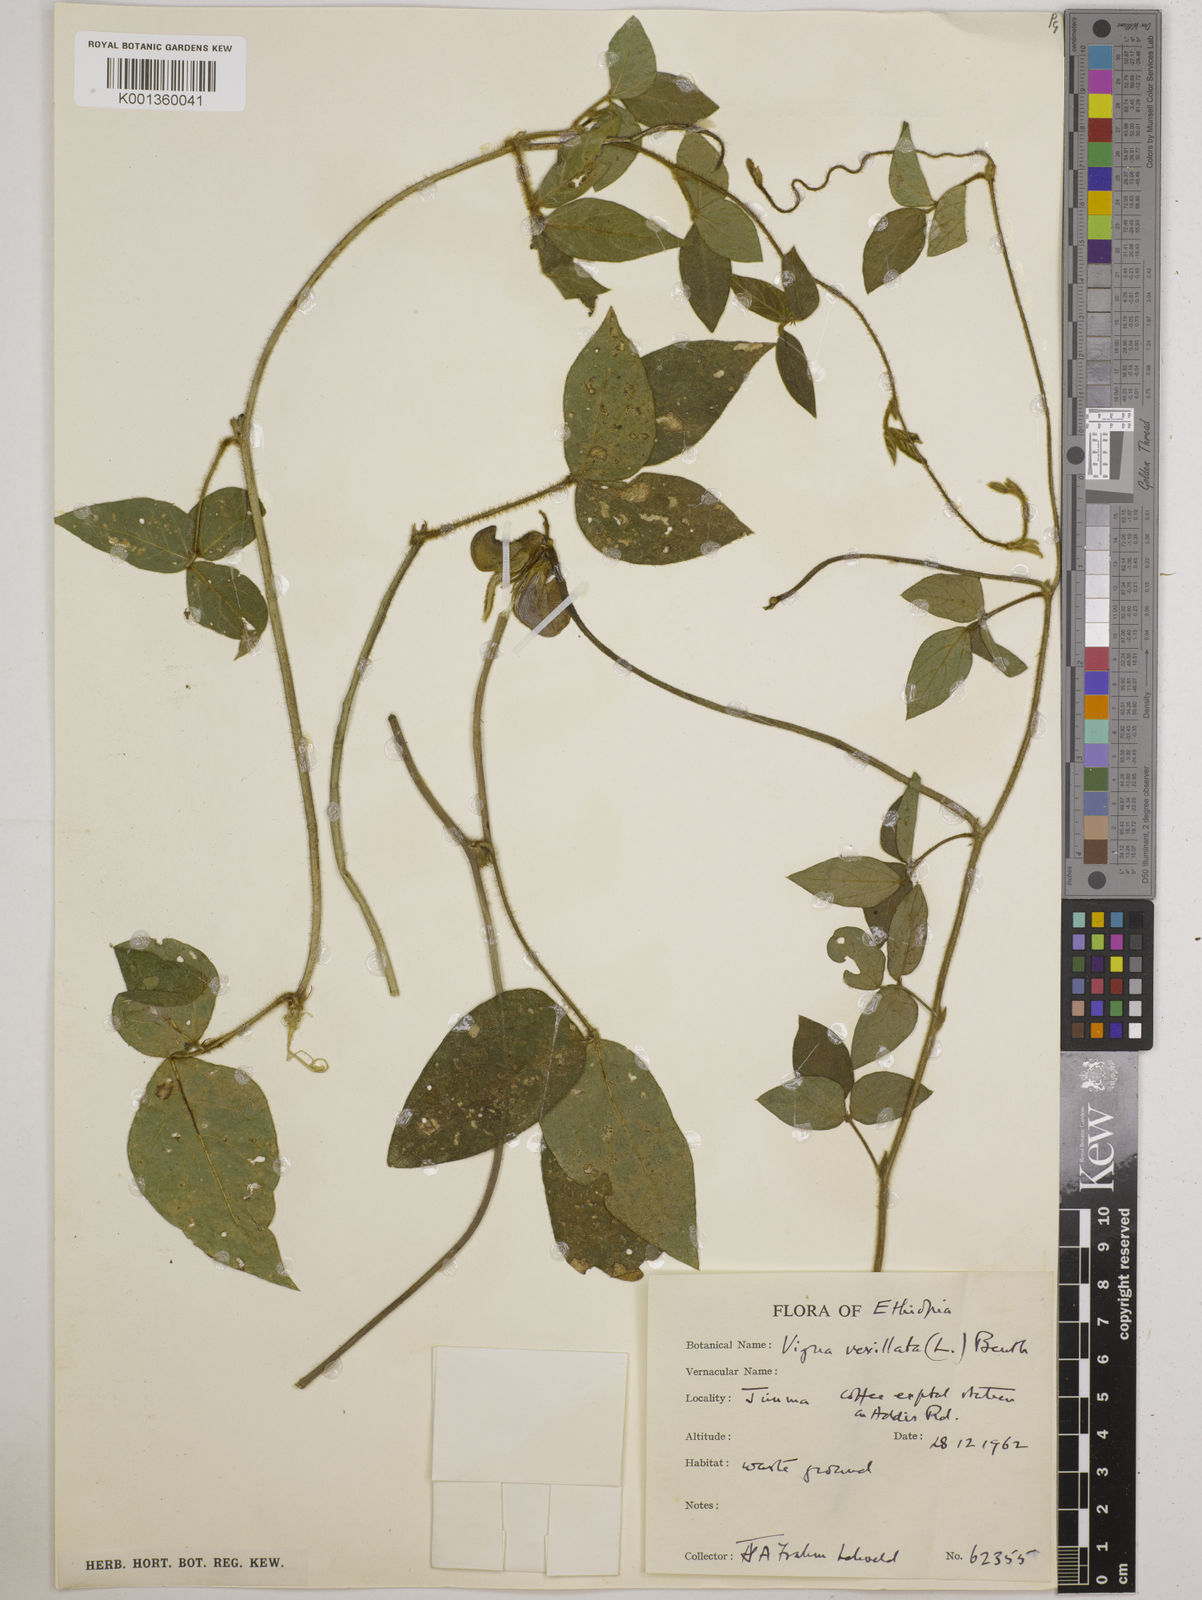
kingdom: Plantae
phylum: Tracheophyta
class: Magnoliopsida
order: Fabales
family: Fabaceae
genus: Vigna
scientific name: Vigna vexillata
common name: Zombi pea
